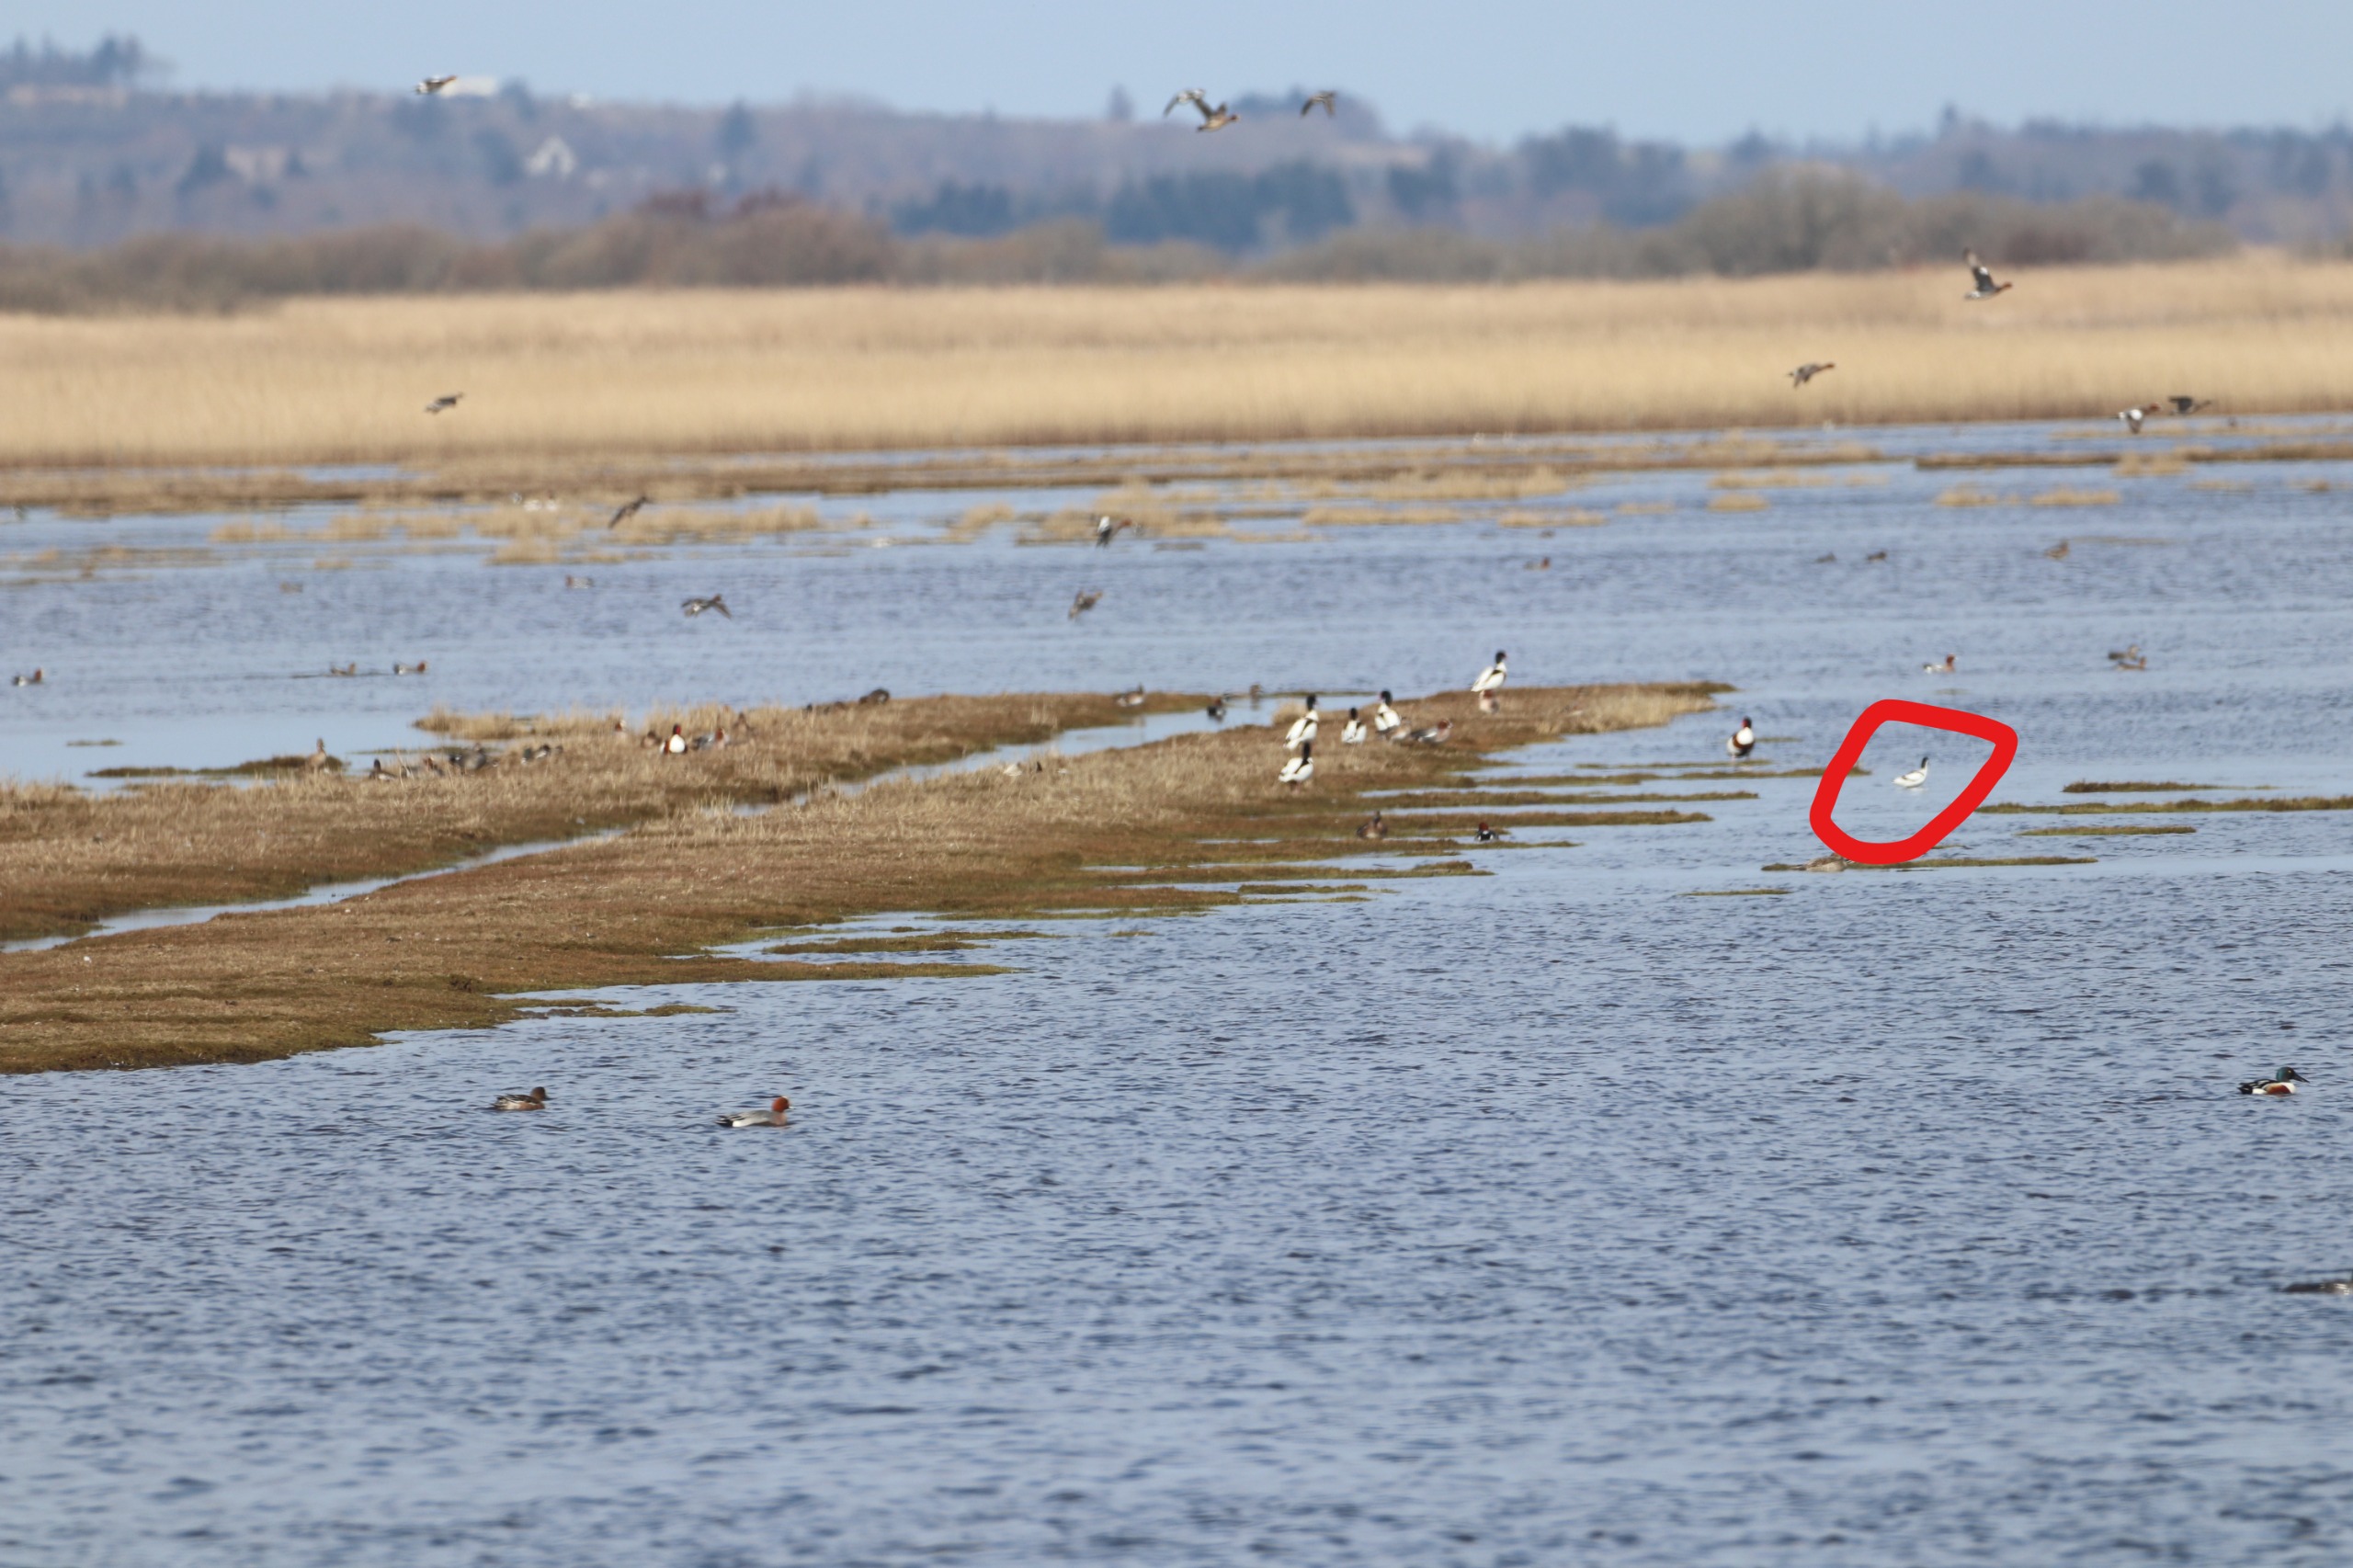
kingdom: Animalia
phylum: Chordata
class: Aves
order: Charadriiformes
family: Recurvirostridae
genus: Recurvirostra
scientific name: Recurvirostra avosetta
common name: Klyde
